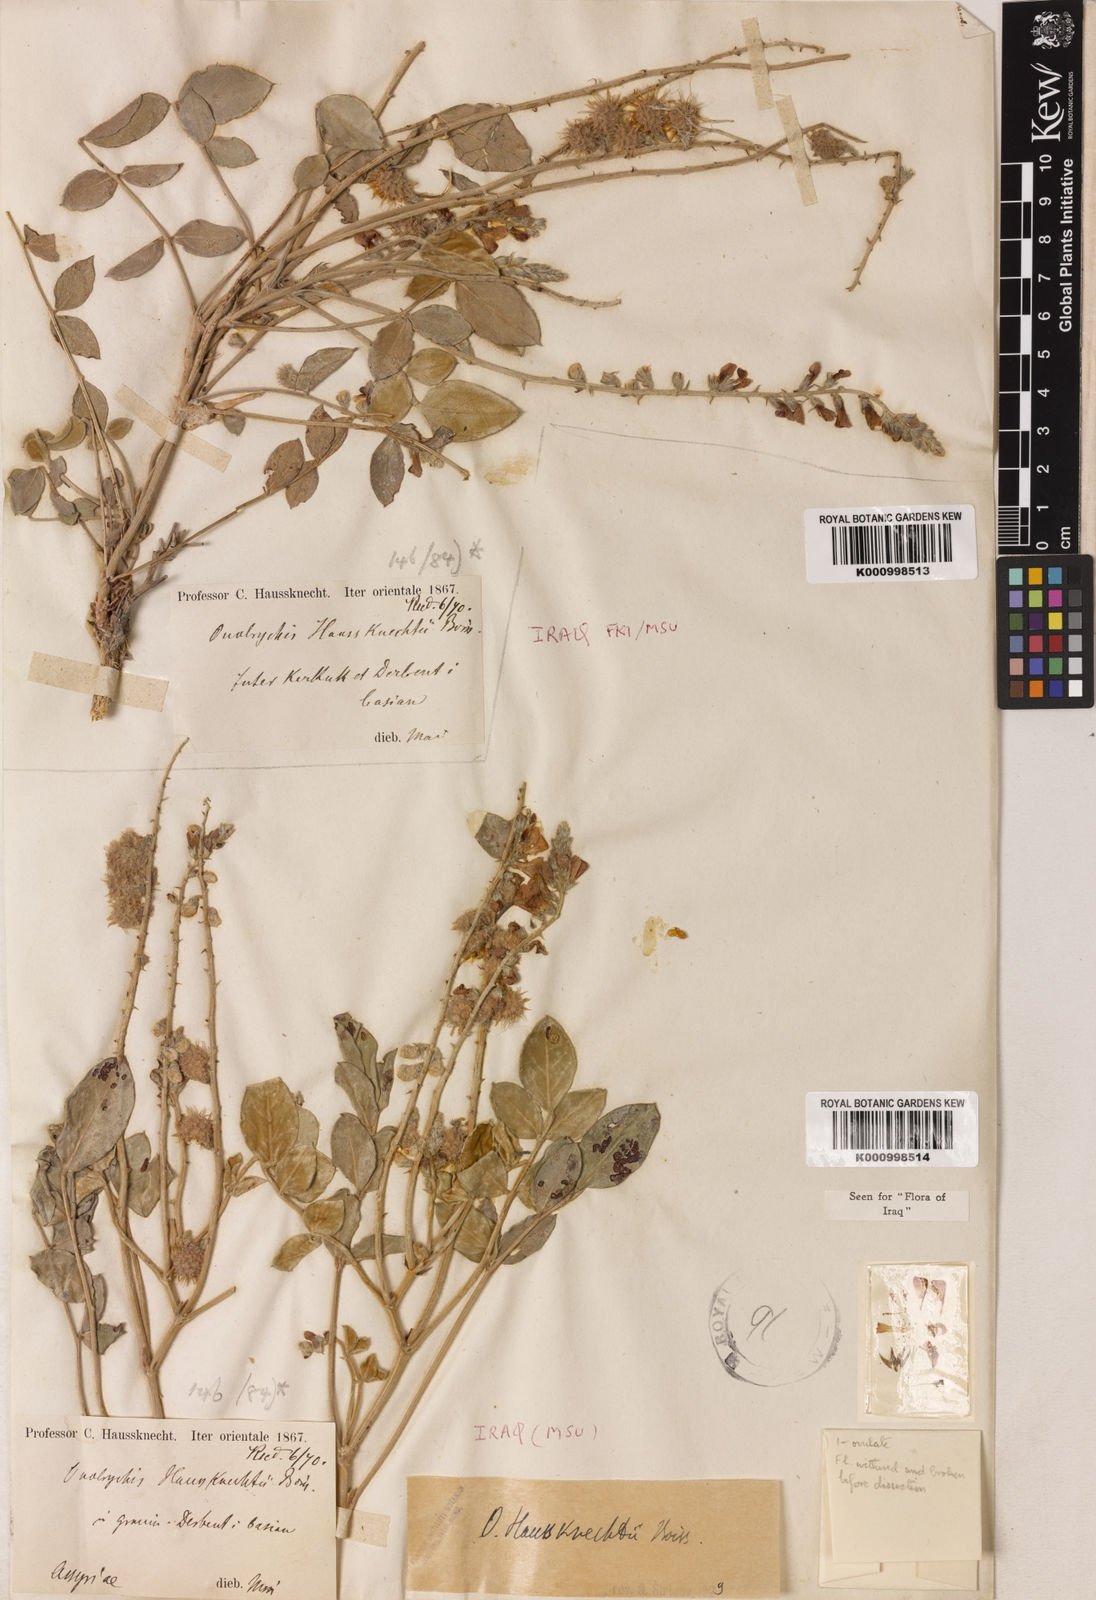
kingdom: Plantae
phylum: Tracheophyta
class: Magnoliopsida
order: Fabales
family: Fabaceae
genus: Onobrychis
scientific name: Onobrychis haussknechtii
